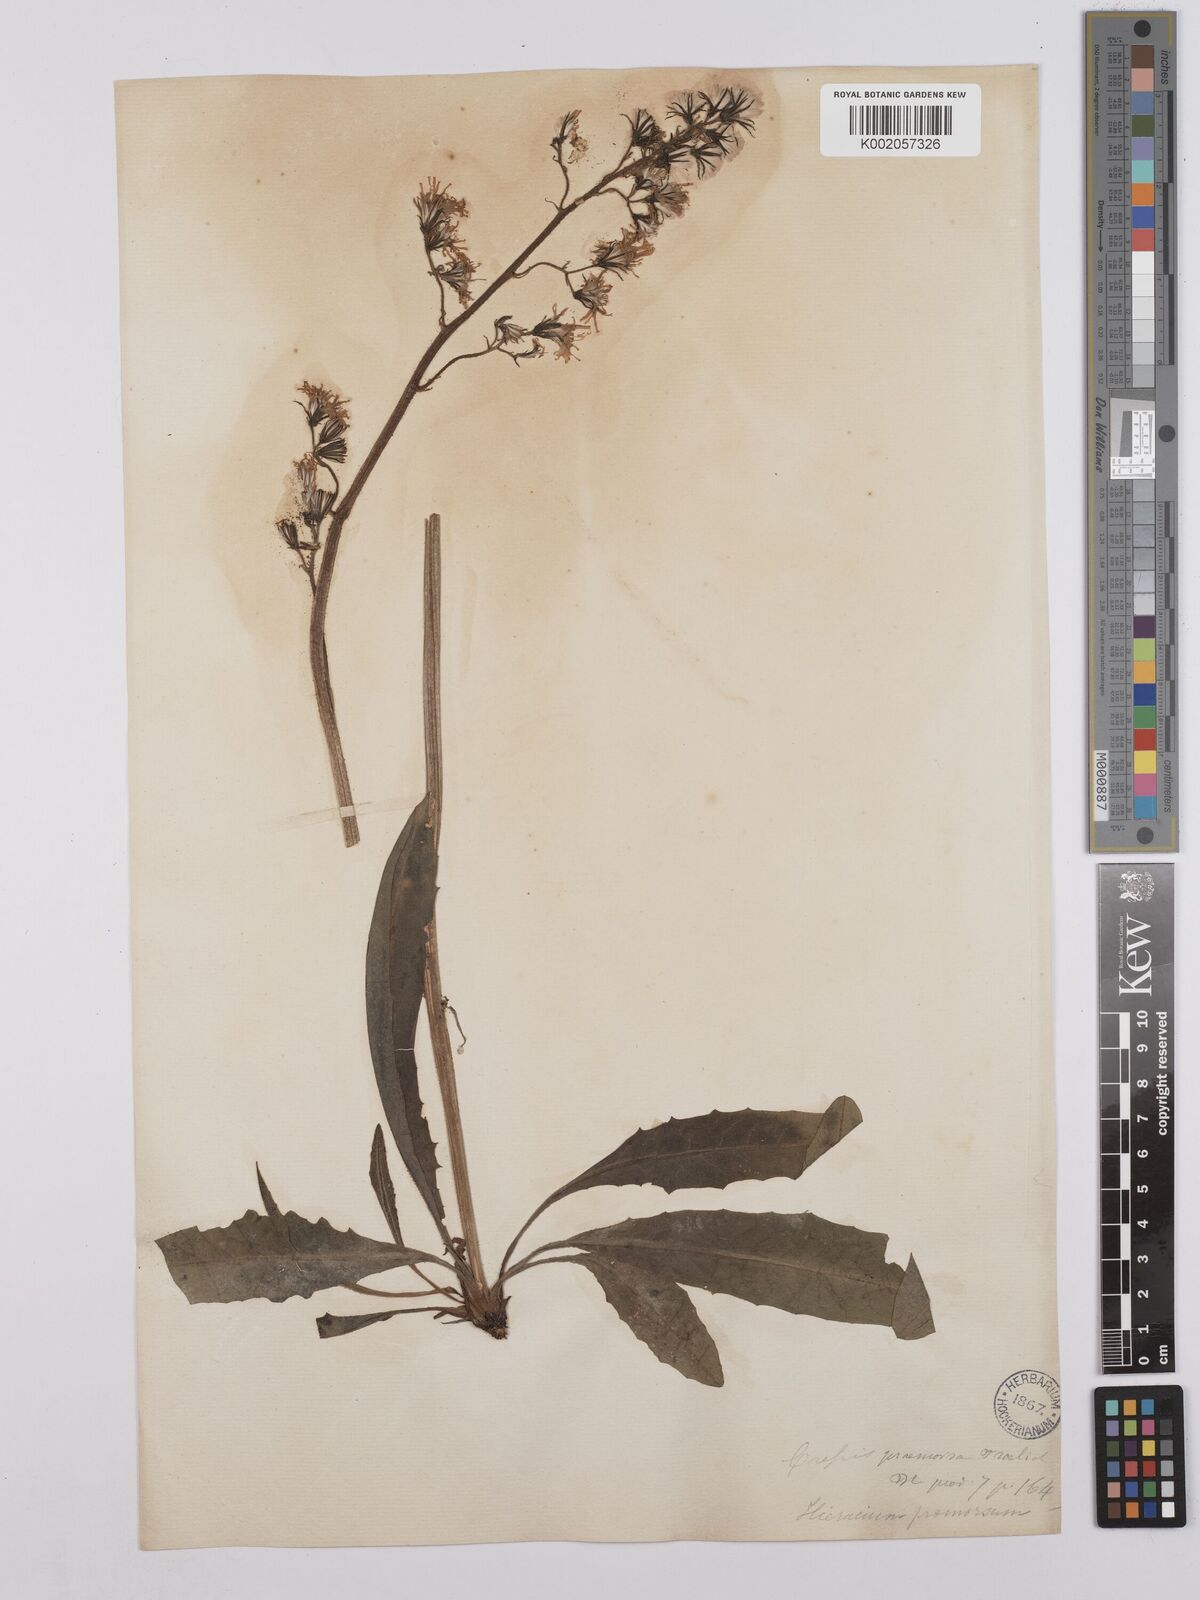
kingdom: Plantae
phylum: Tracheophyta
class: Magnoliopsida
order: Asterales
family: Asteraceae
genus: Crepis
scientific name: Crepis praemorsa
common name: Leafless hawk's-beard
